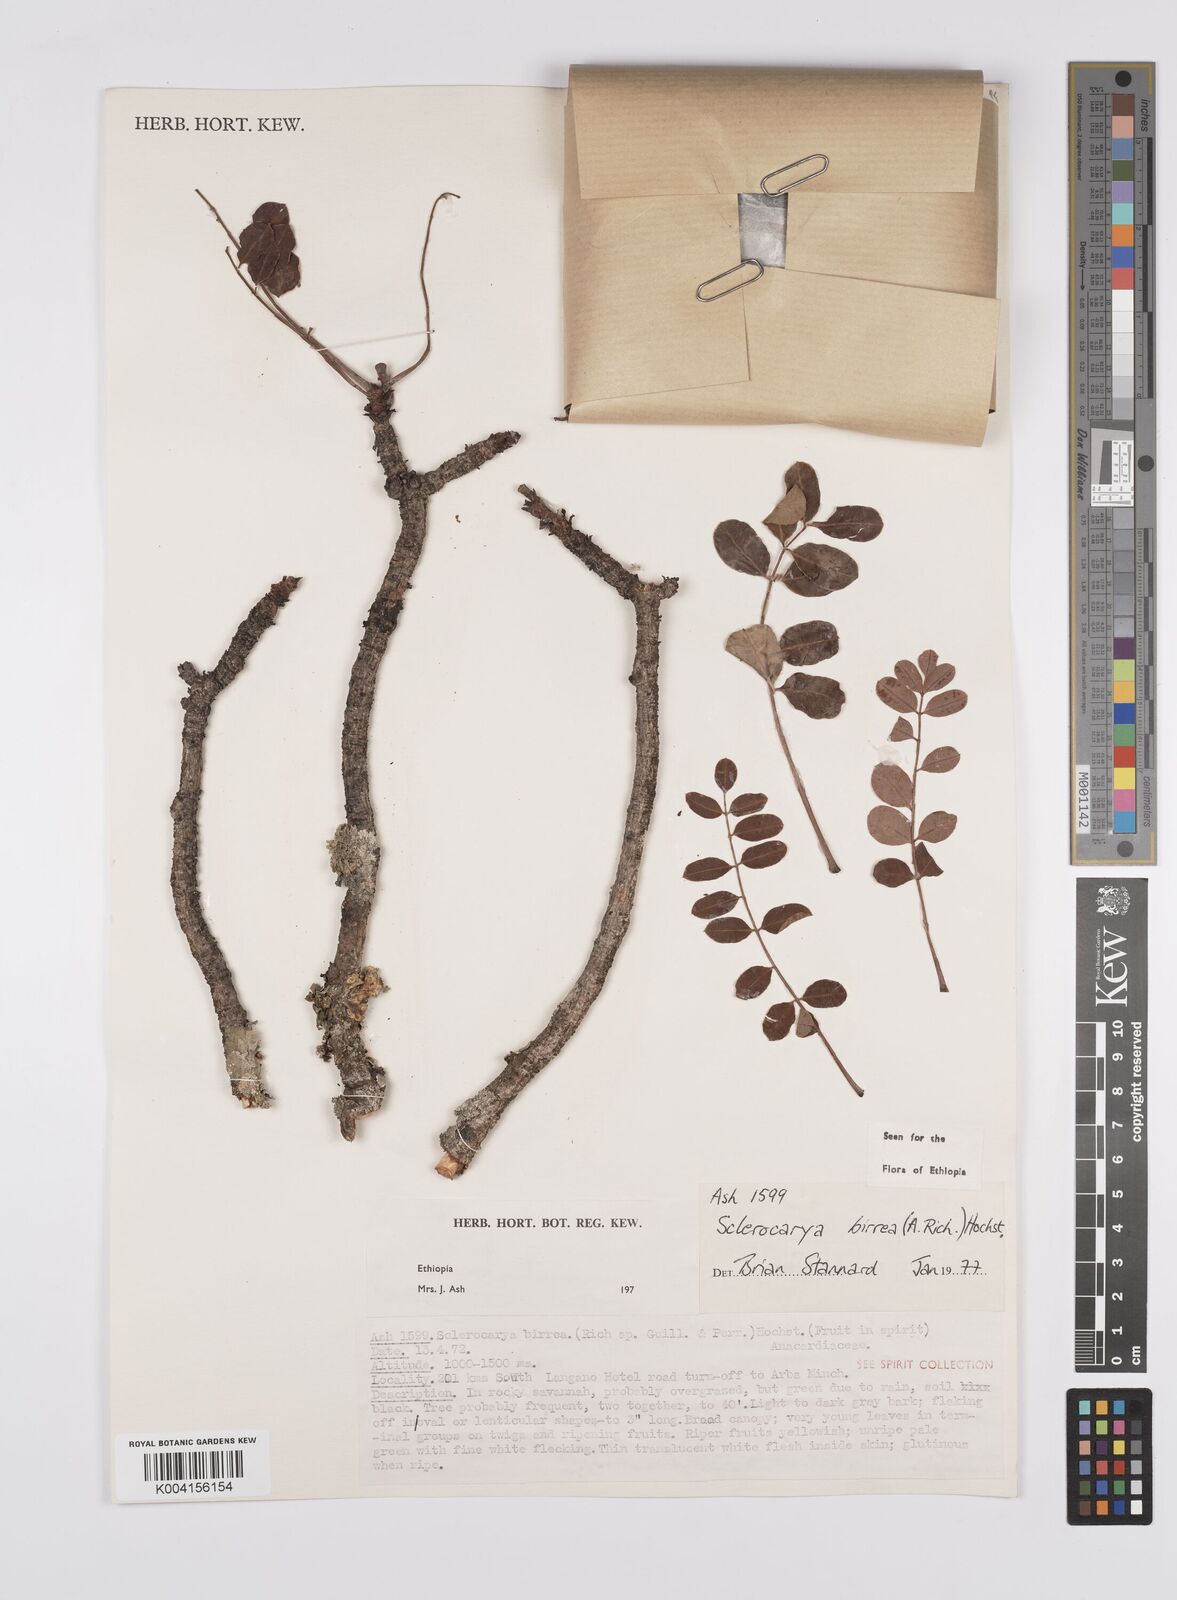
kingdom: Plantae
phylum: Tracheophyta
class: Magnoliopsida
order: Sapindales
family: Anacardiaceae
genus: Sclerocarya
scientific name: Sclerocarya birrea
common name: Marula
